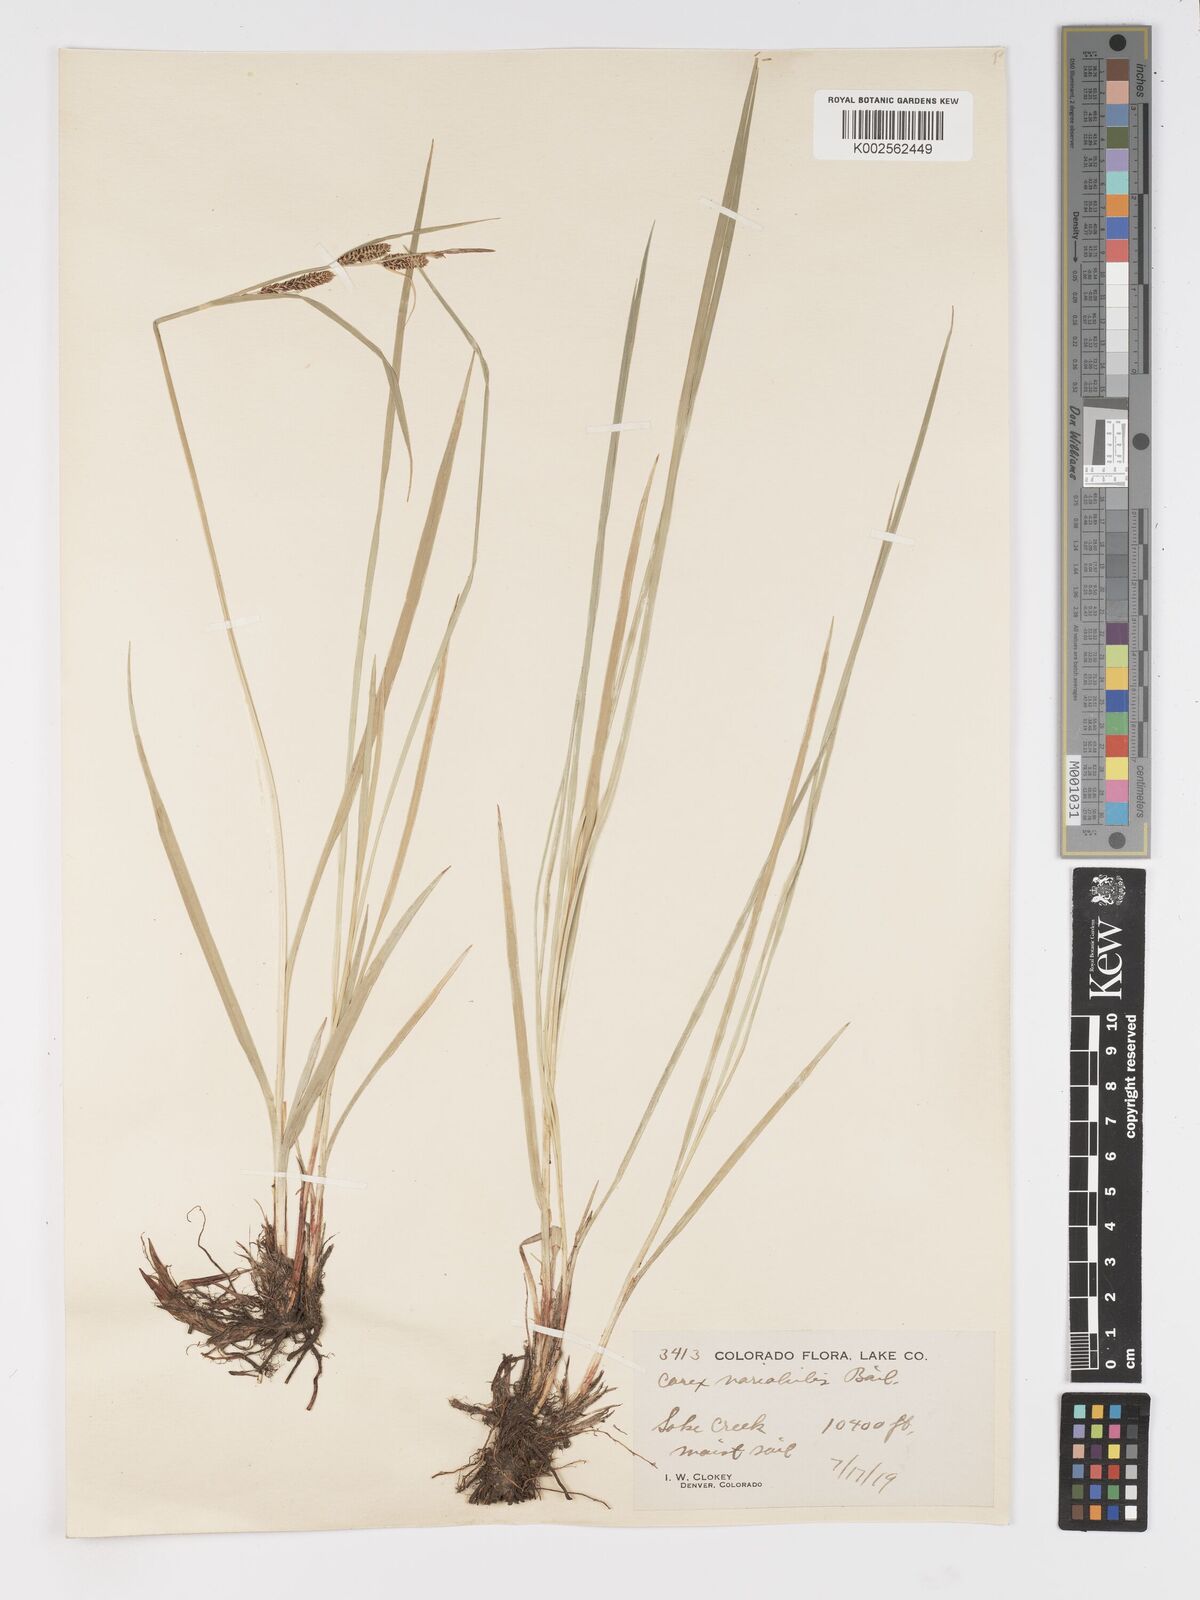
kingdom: Plantae
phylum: Tracheophyta
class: Liliopsida
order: Poales
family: Cyperaceae
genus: Carex
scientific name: Carex
